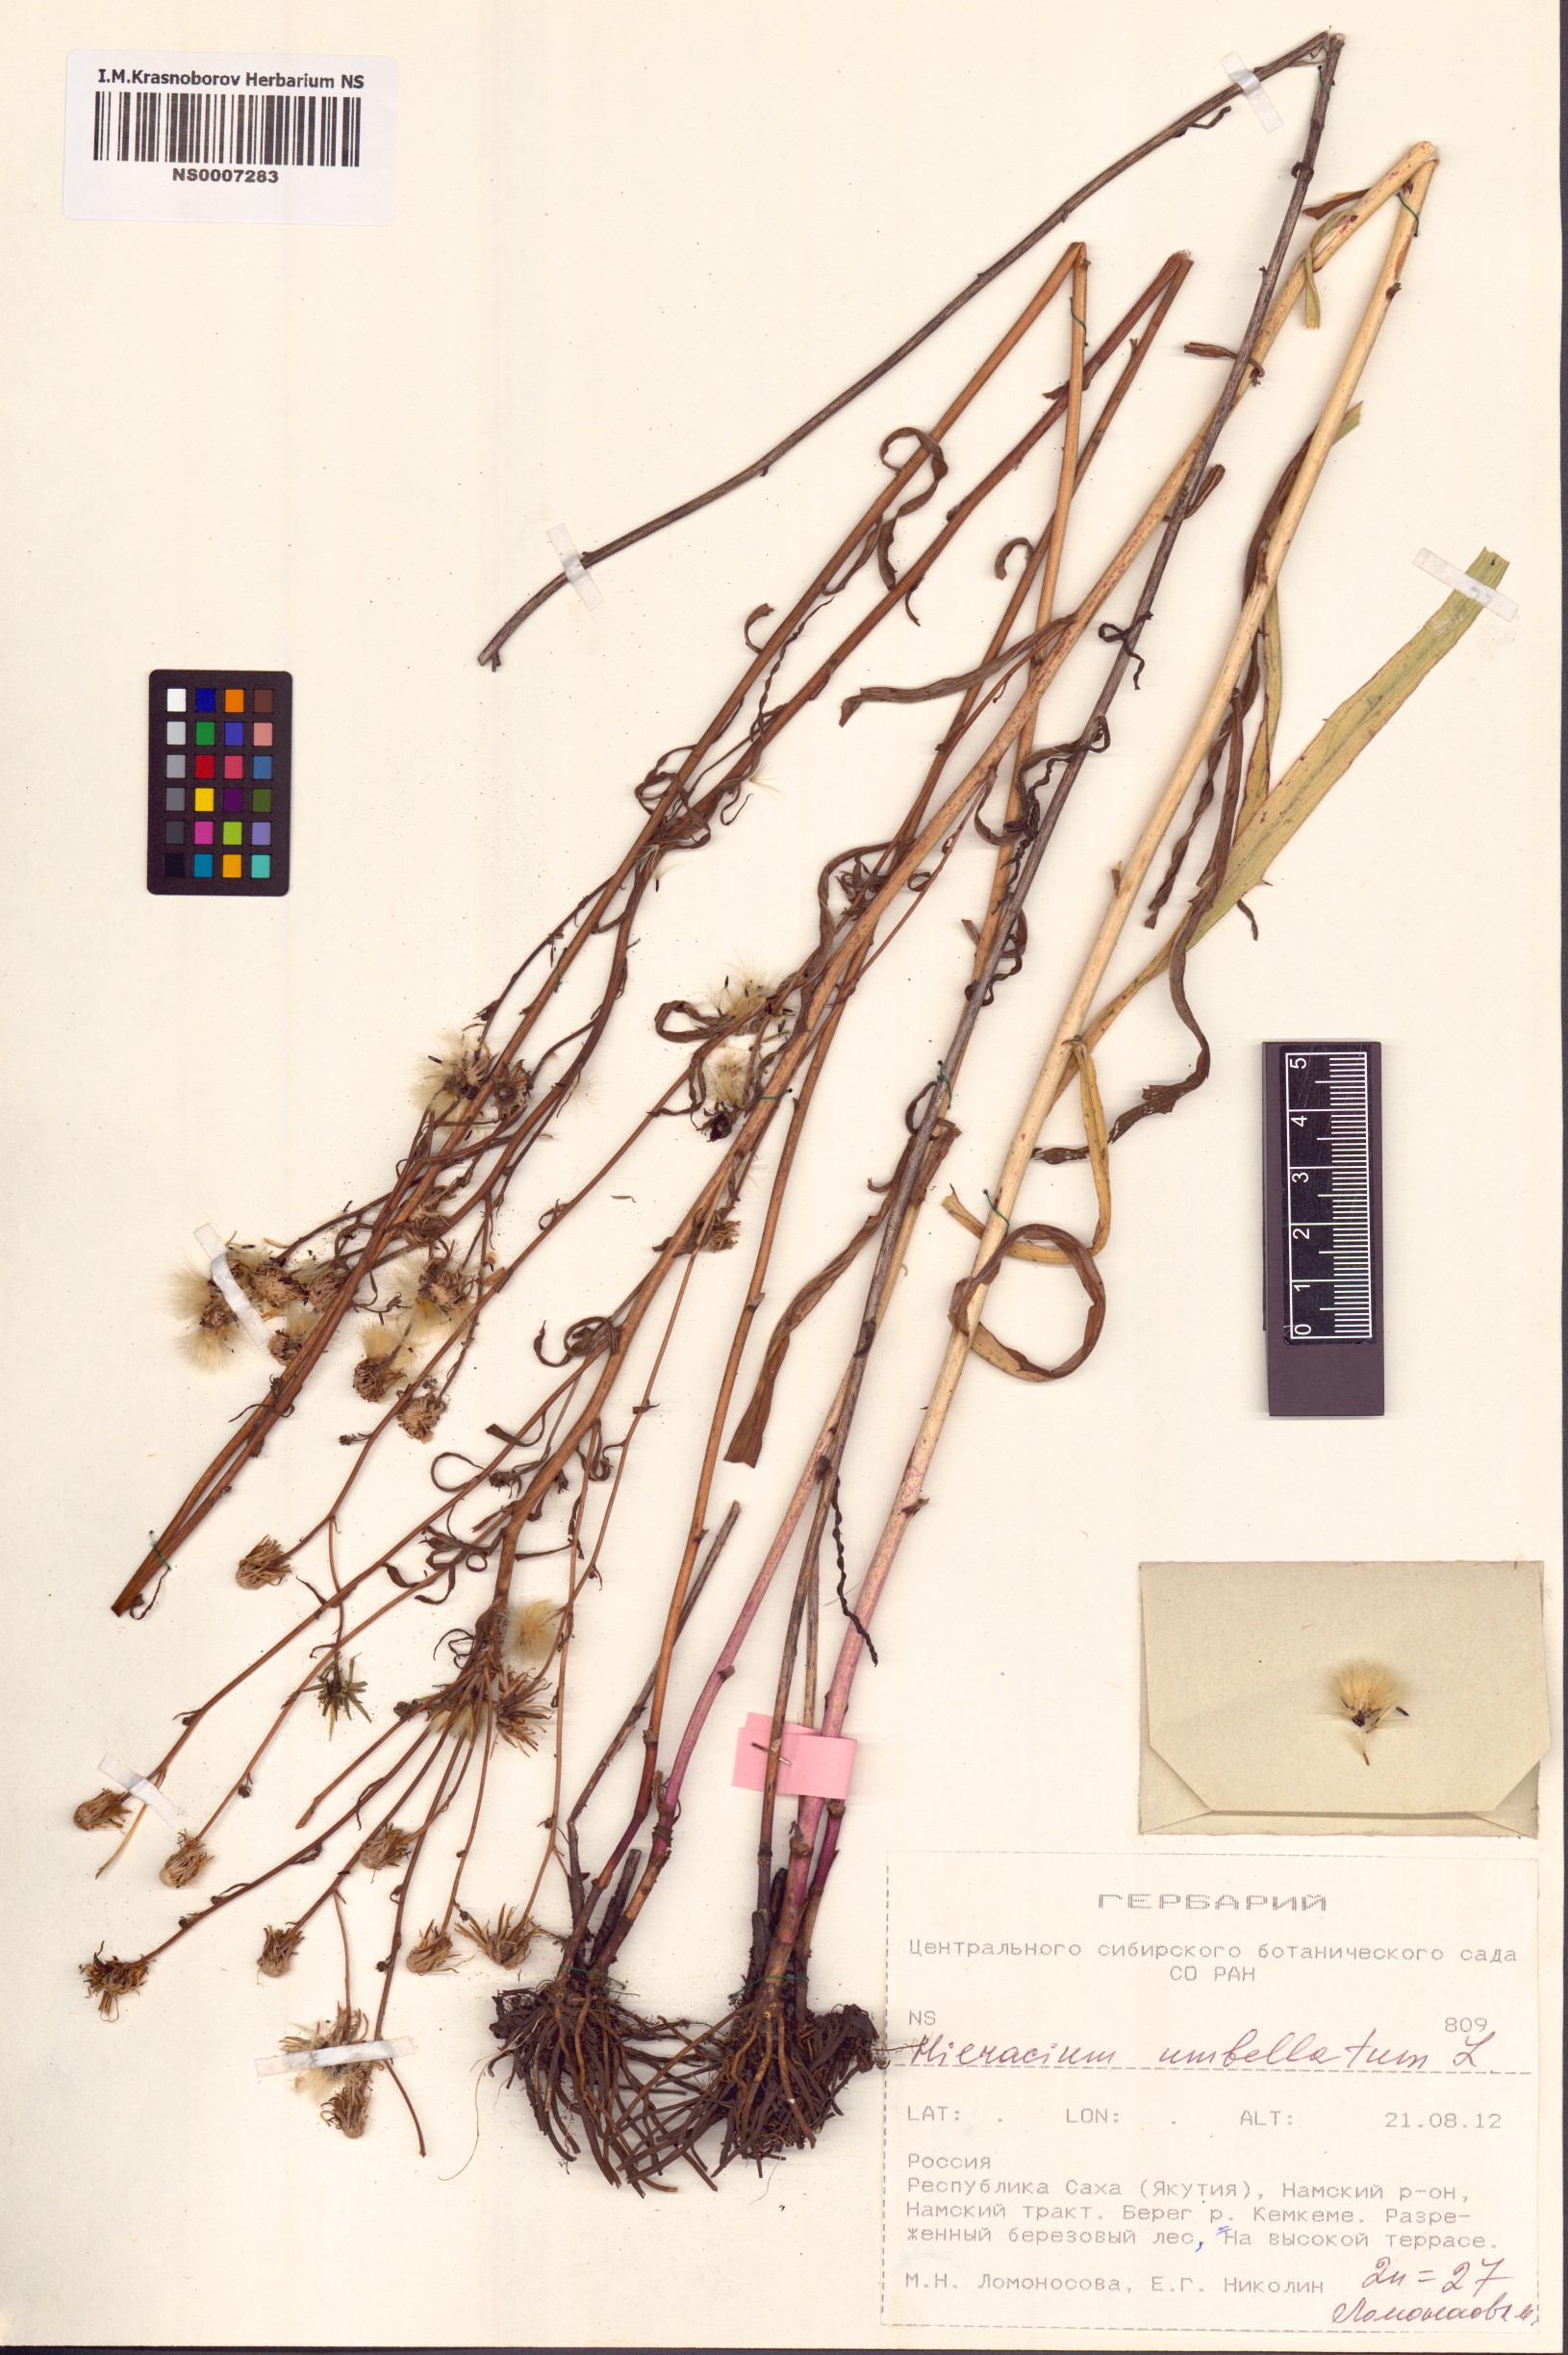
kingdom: Plantae
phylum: Tracheophyta
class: Magnoliopsida
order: Asterales
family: Asteraceae
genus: Hieracium
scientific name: Hieracium umbellatum
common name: Northern hawkweed
